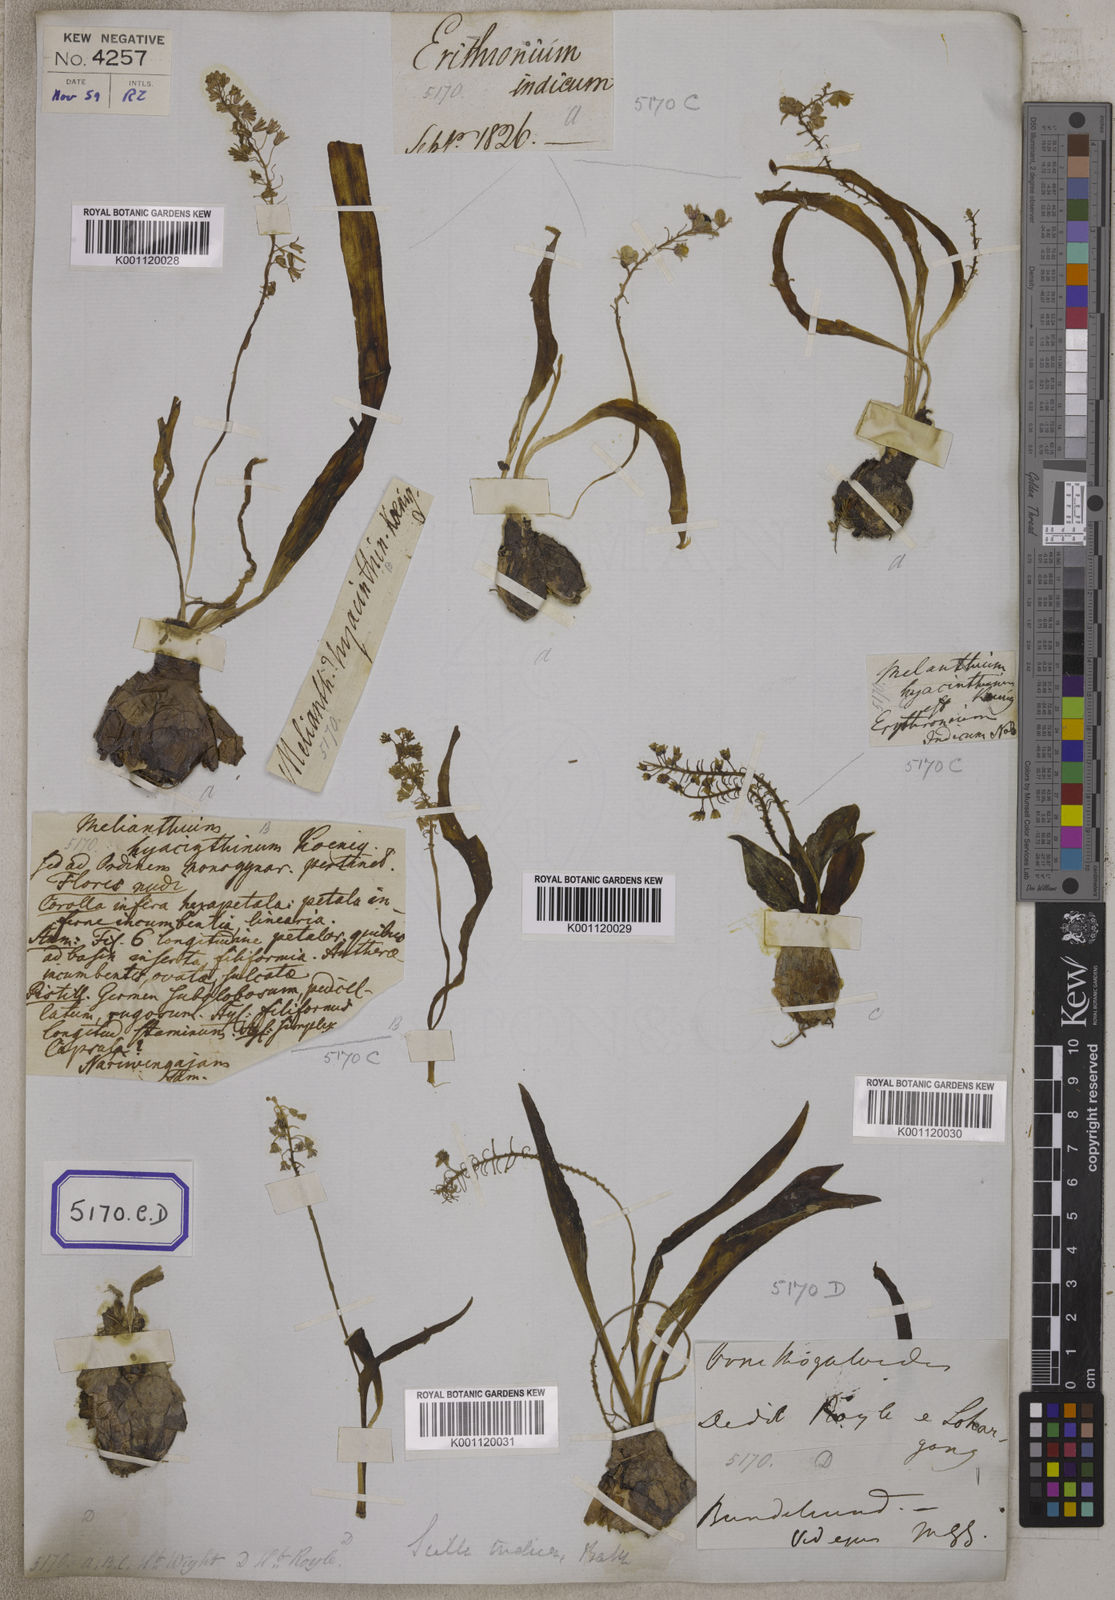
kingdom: Plantae
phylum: Tracheophyta
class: Liliopsida
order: Asparagales
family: Asparagaceae
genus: Ledebouria
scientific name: Ledebouria
